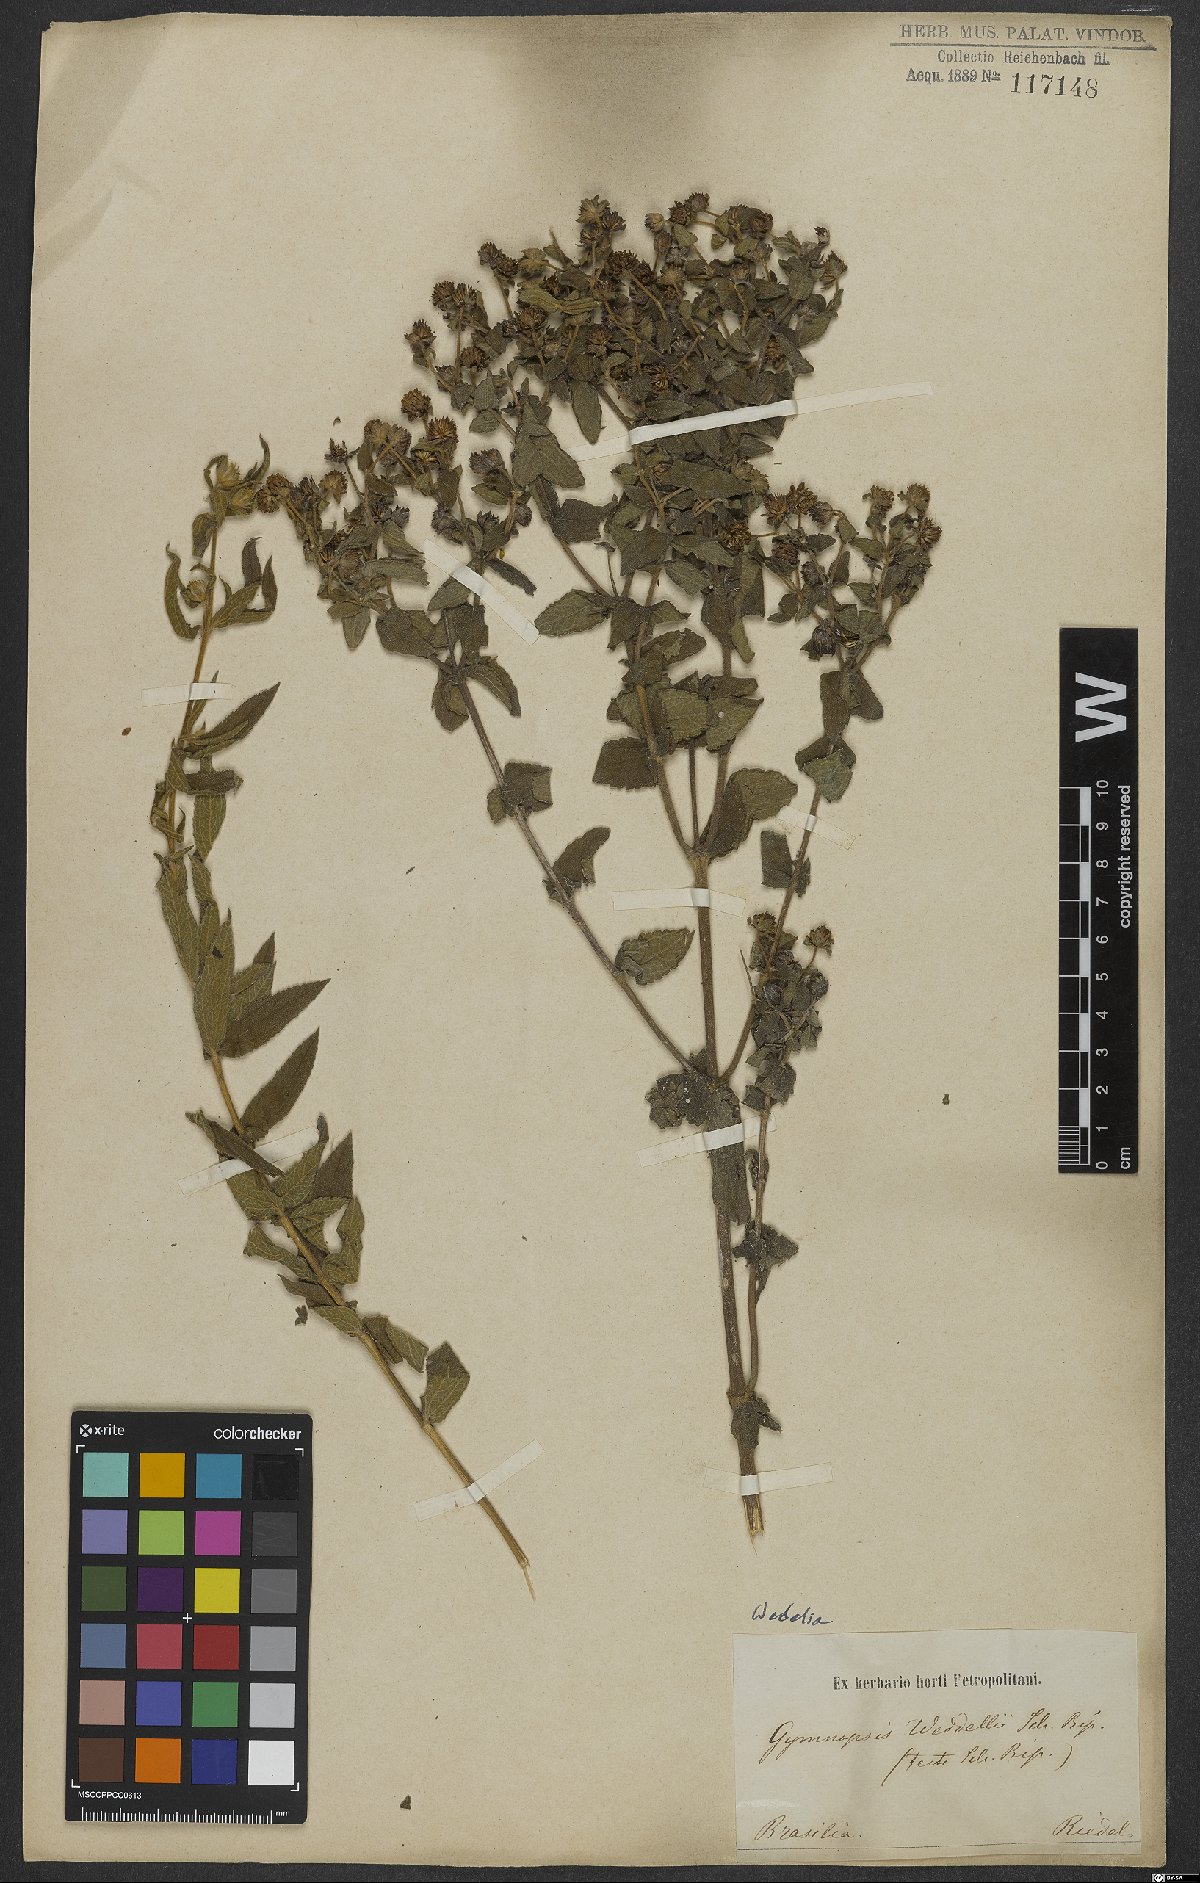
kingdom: Plantae
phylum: Tracheophyta
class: Magnoliopsida
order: Asterales
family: Asteraceae
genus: Wedelia
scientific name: Wedelia macrodonta
